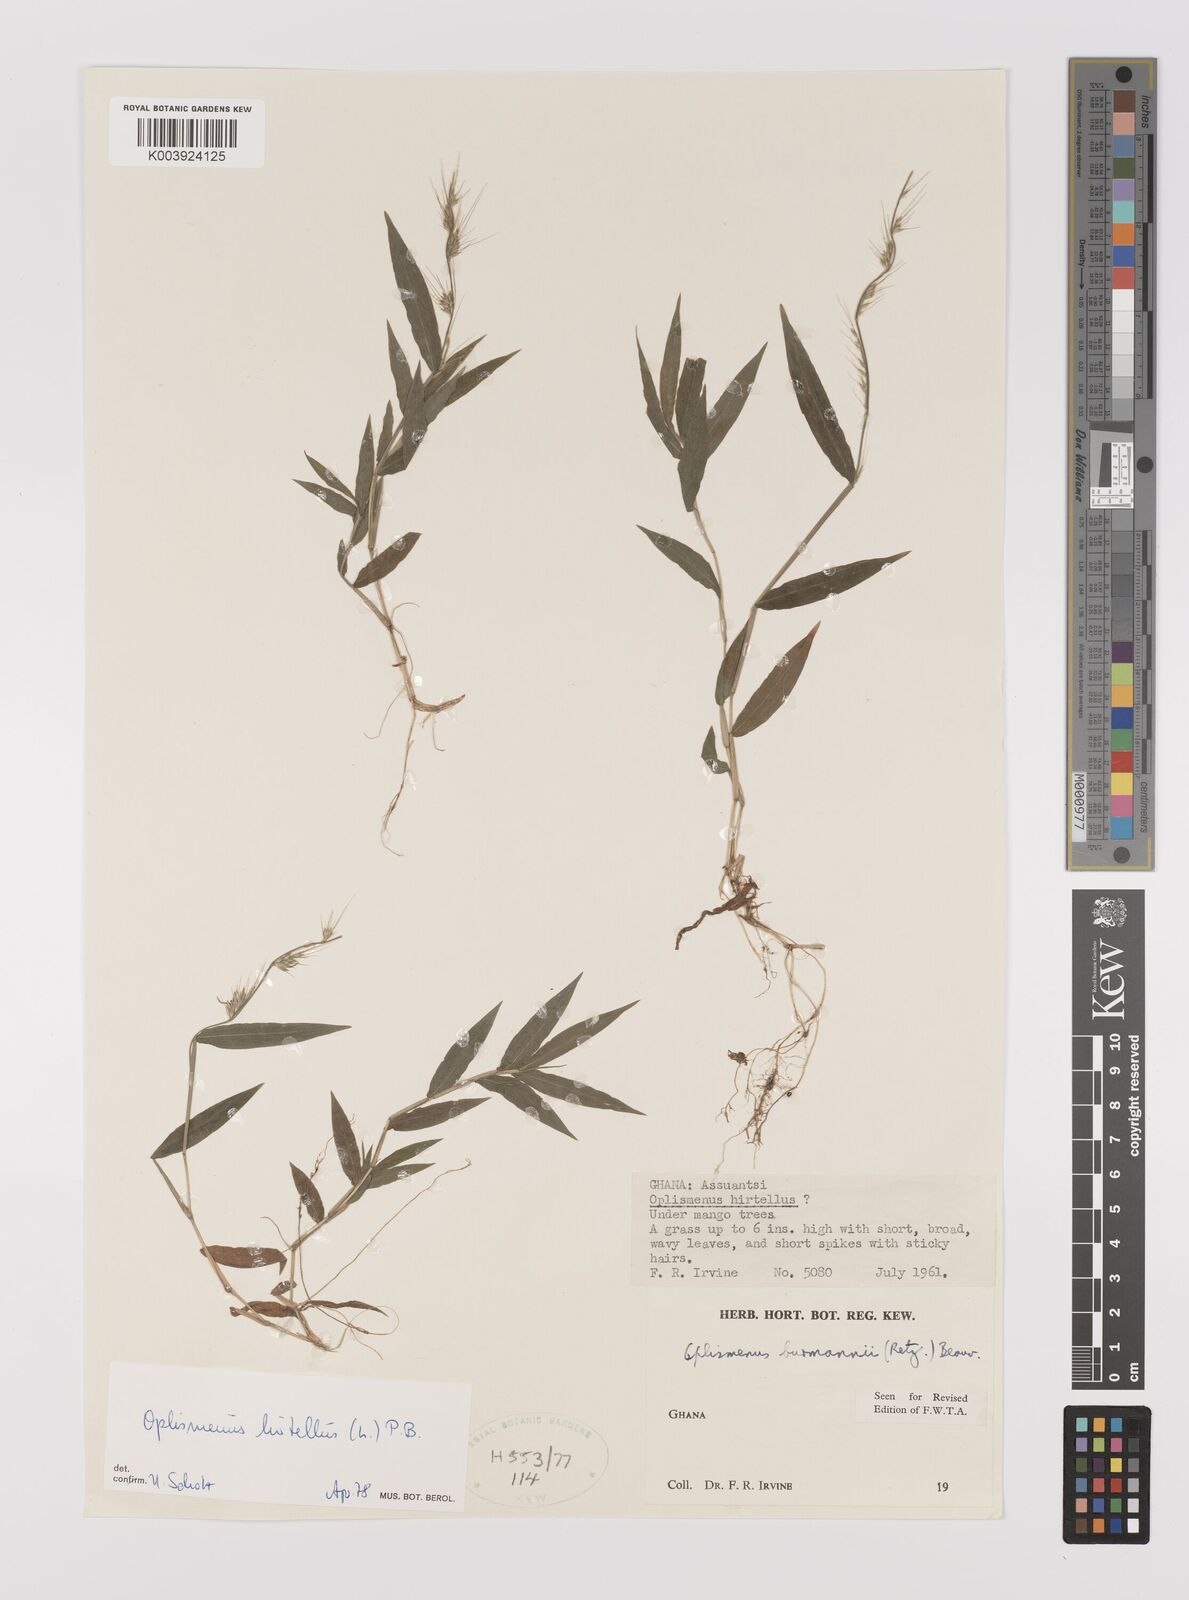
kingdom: Plantae
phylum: Tracheophyta
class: Liliopsida
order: Poales
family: Poaceae
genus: Oplismenus
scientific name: Oplismenus burmanni
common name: Burmann's basketgrass
